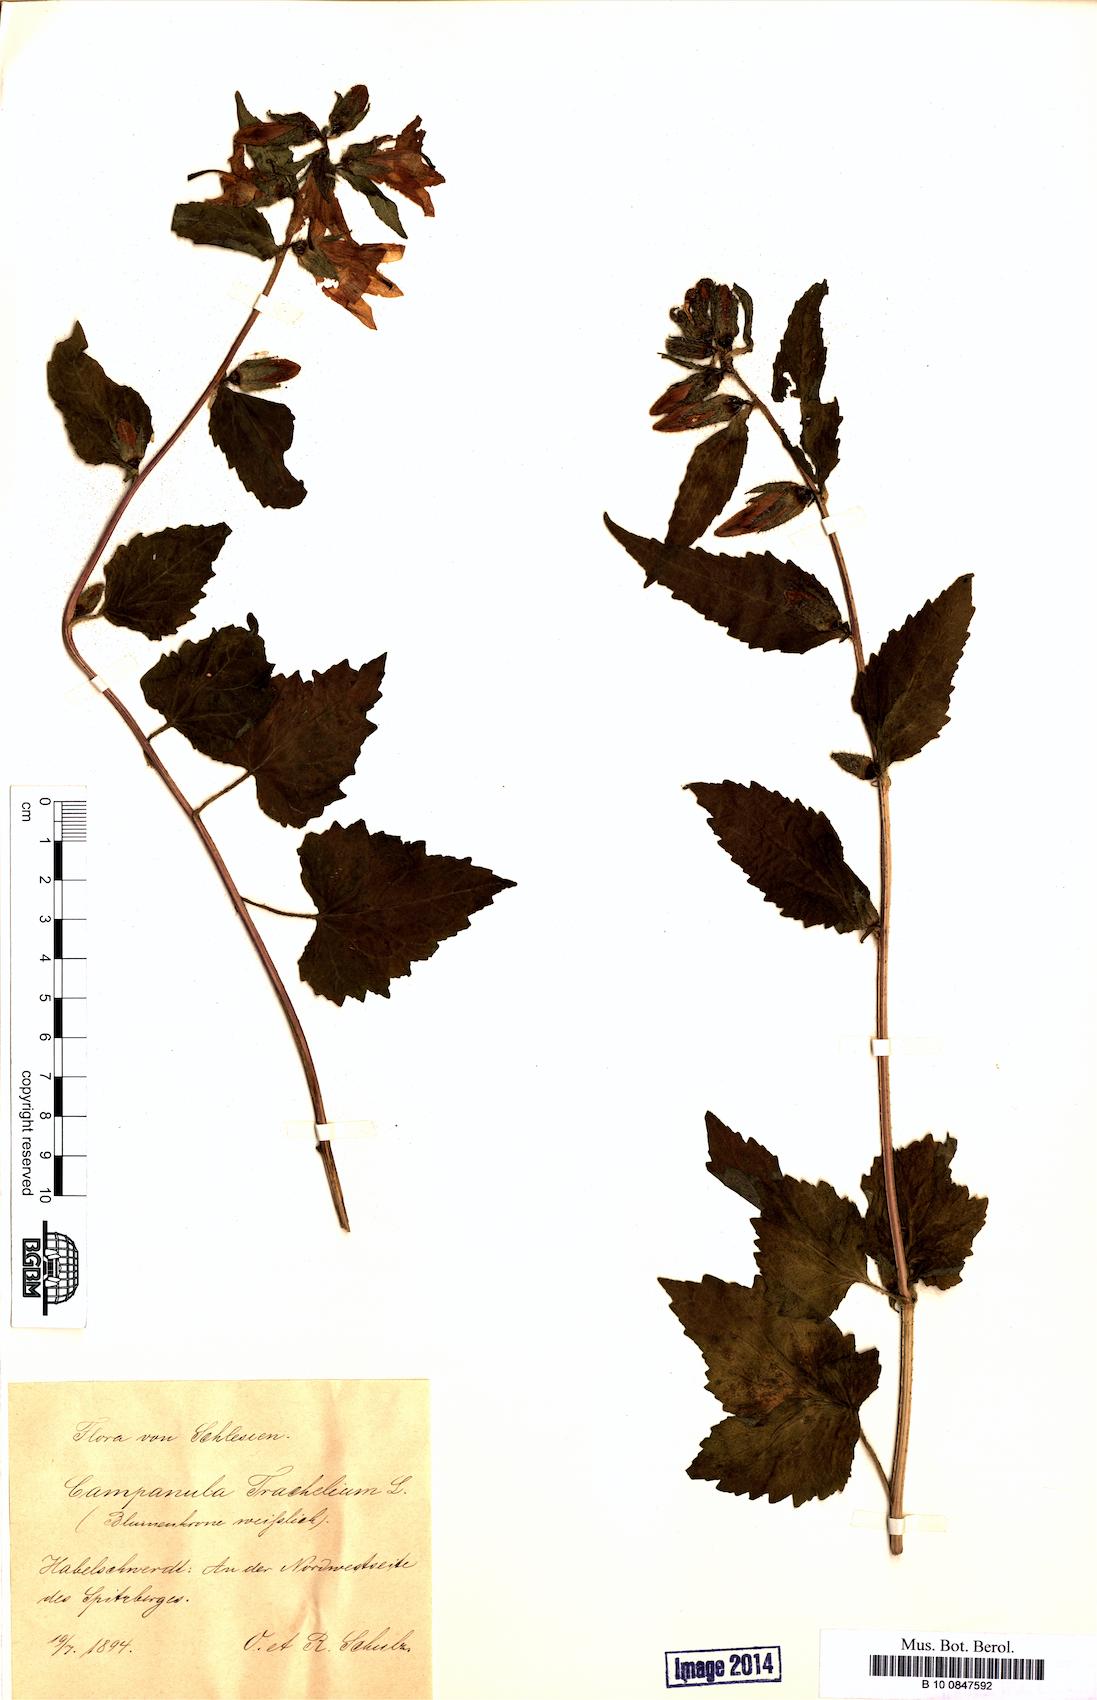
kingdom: Plantae
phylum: Tracheophyta
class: Magnoliopsida
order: Asterales
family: Campanulaceae
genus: Campanula
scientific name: Campanula trachelium
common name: Nettle-leaved bellflower
